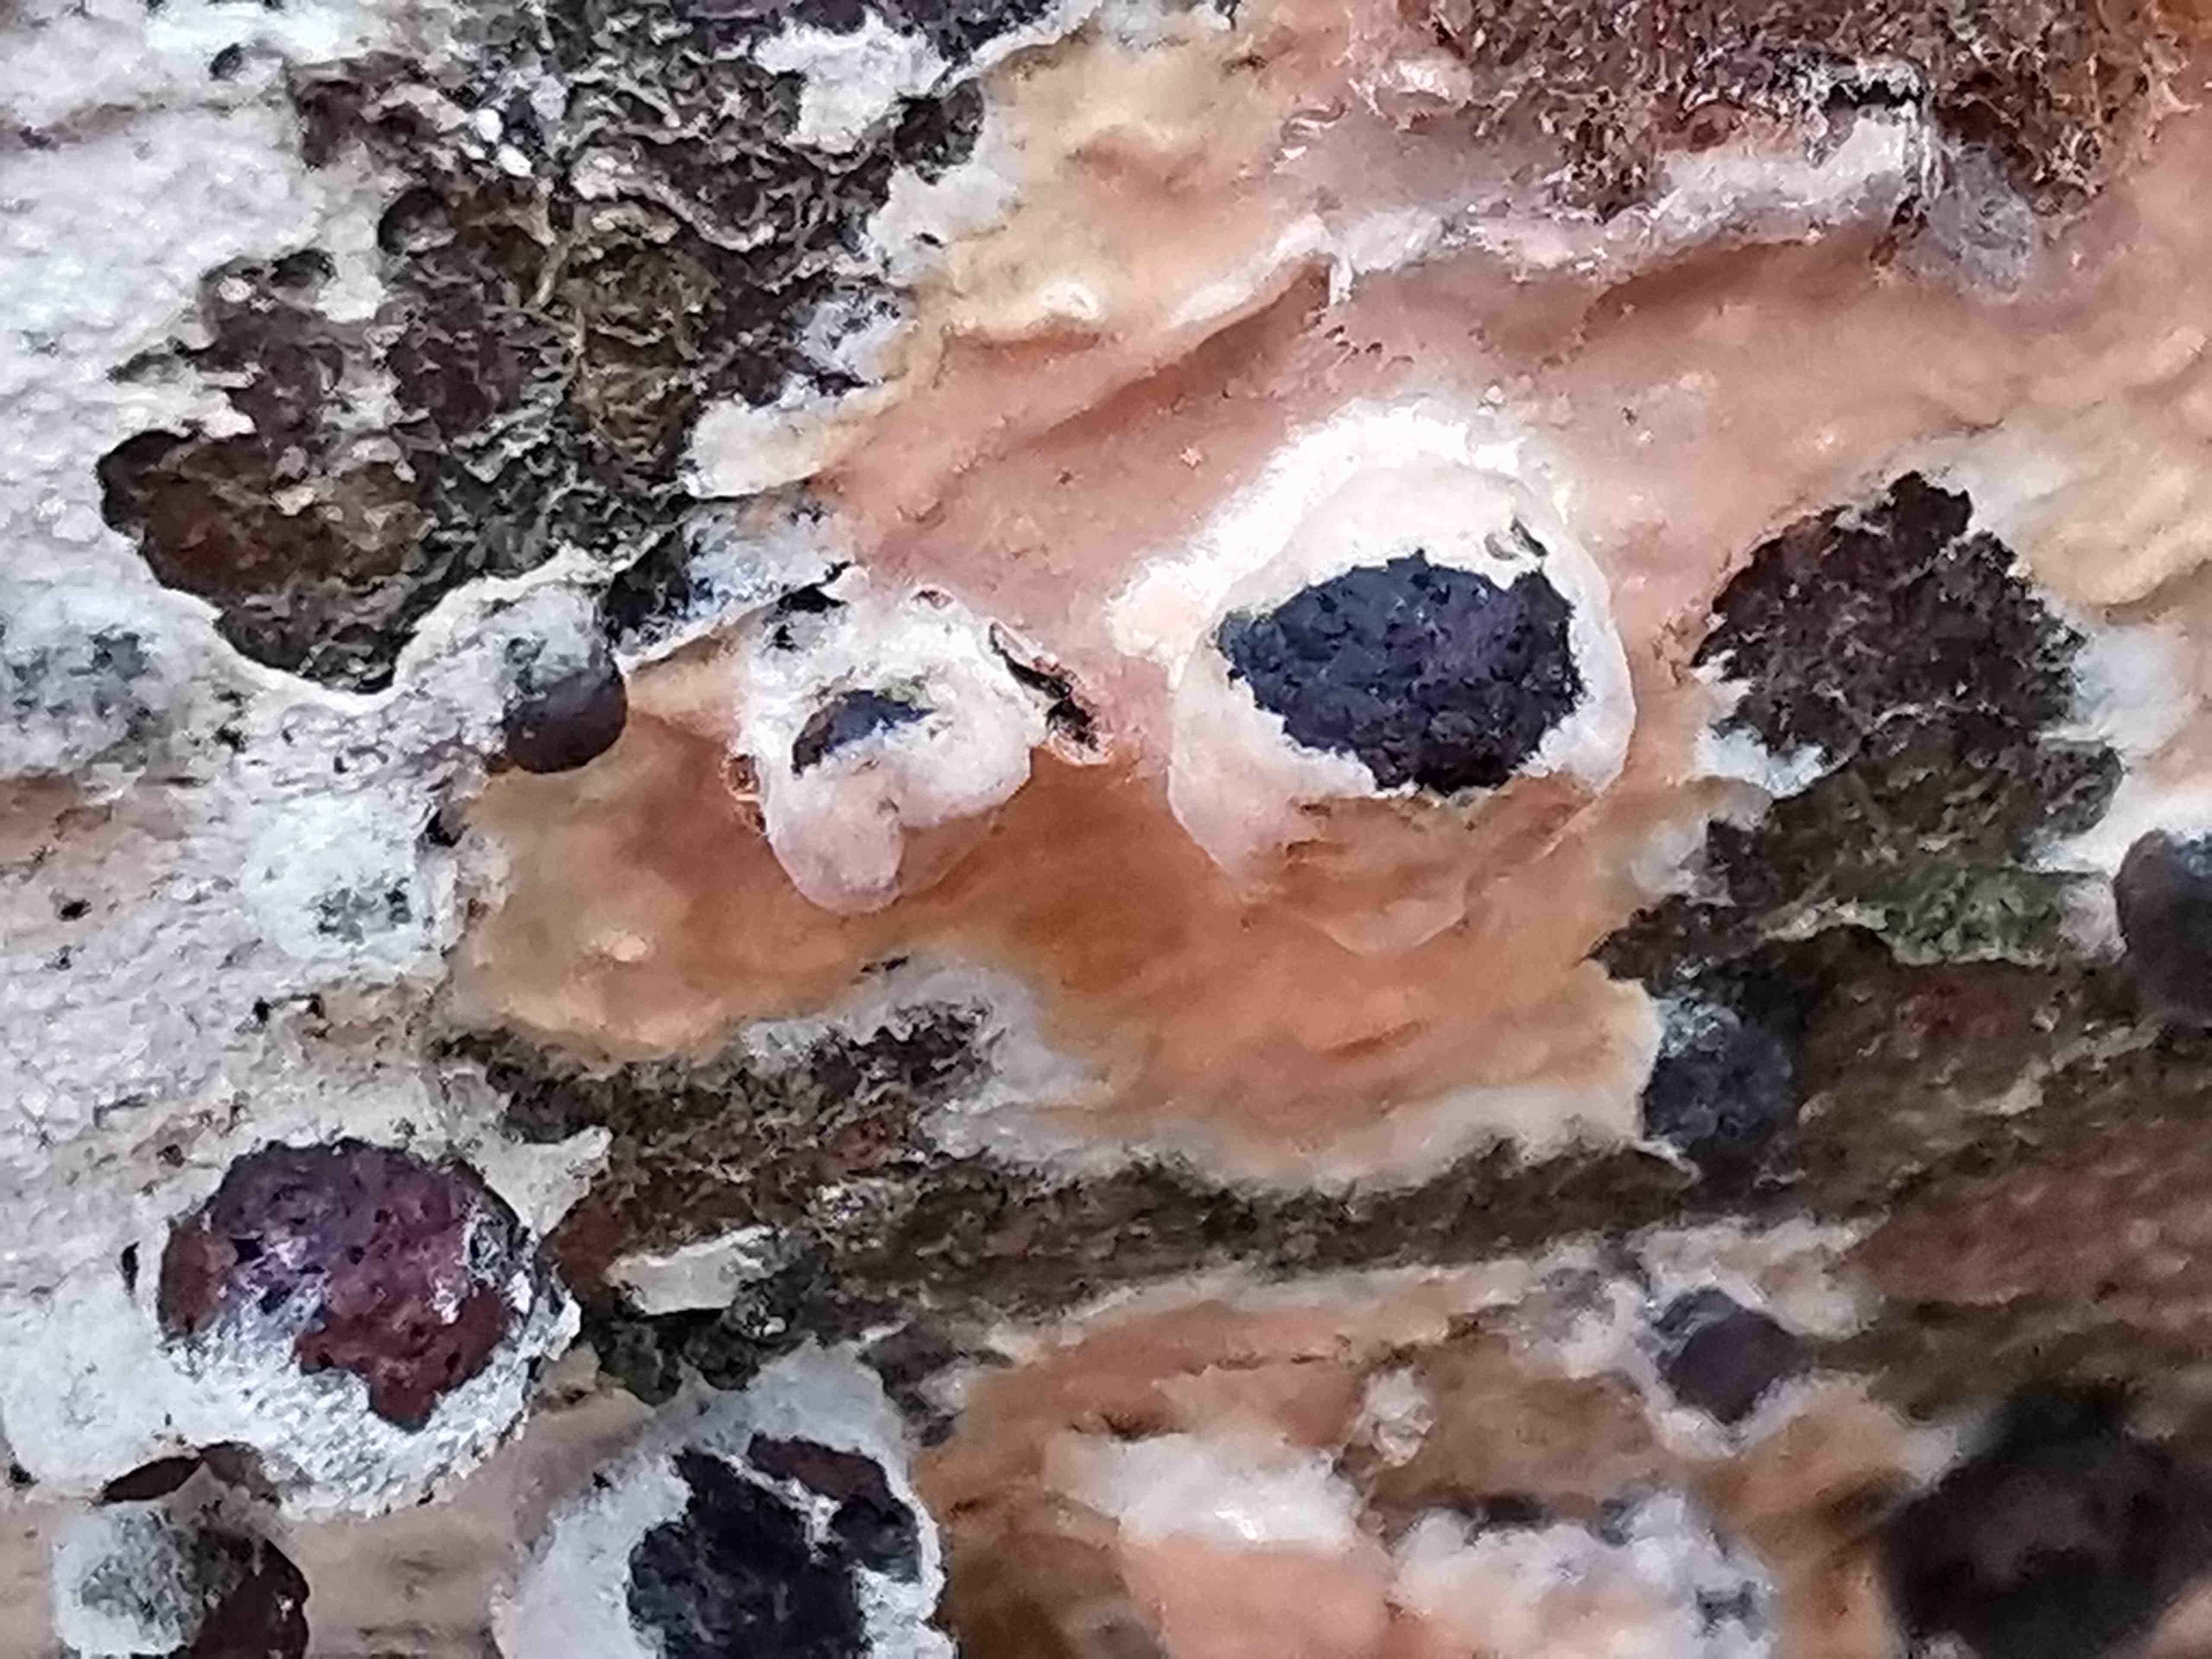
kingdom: Fungi
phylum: Basidiomycota
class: Agaricomycetes
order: Russulales
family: Peniophoraceae
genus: Peniophora
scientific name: Peniophora incarnata
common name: laksefarvet voksskind
